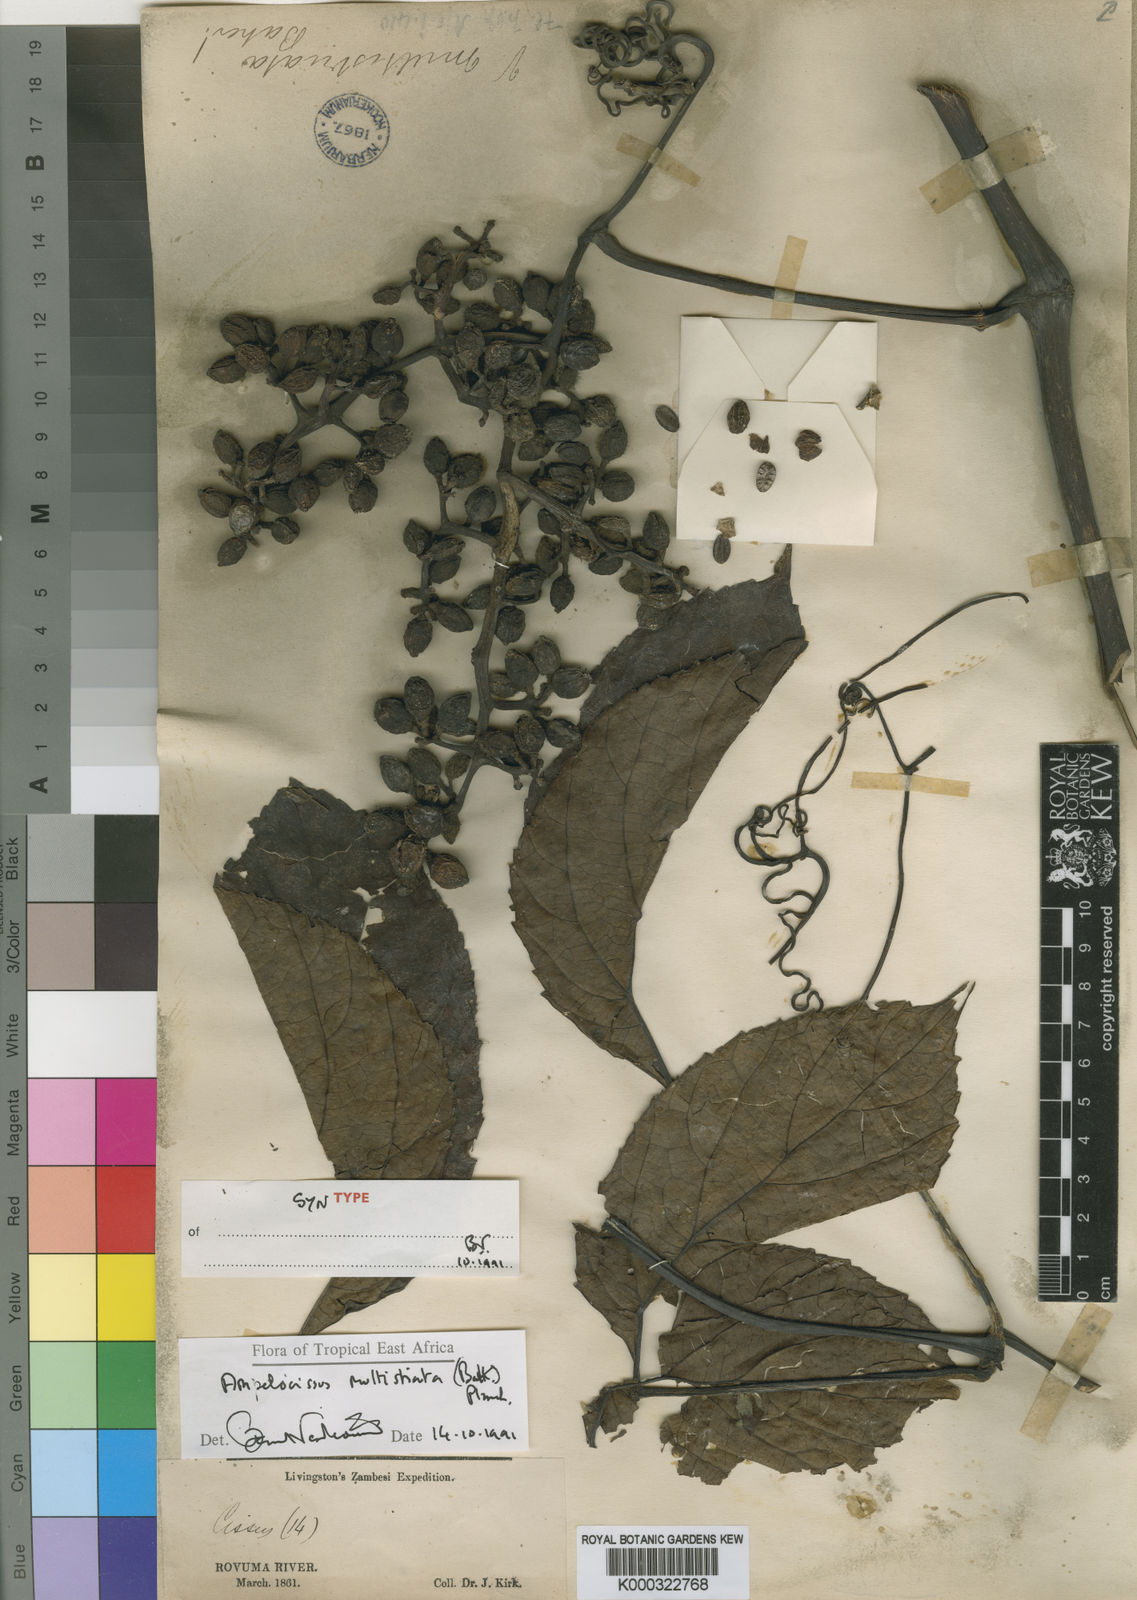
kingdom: Plantae
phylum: Tracheophyta
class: Magnoliopsida
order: Vitales
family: Vitaceae
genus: Ampelocissus
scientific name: Ampelocissus multistriata
